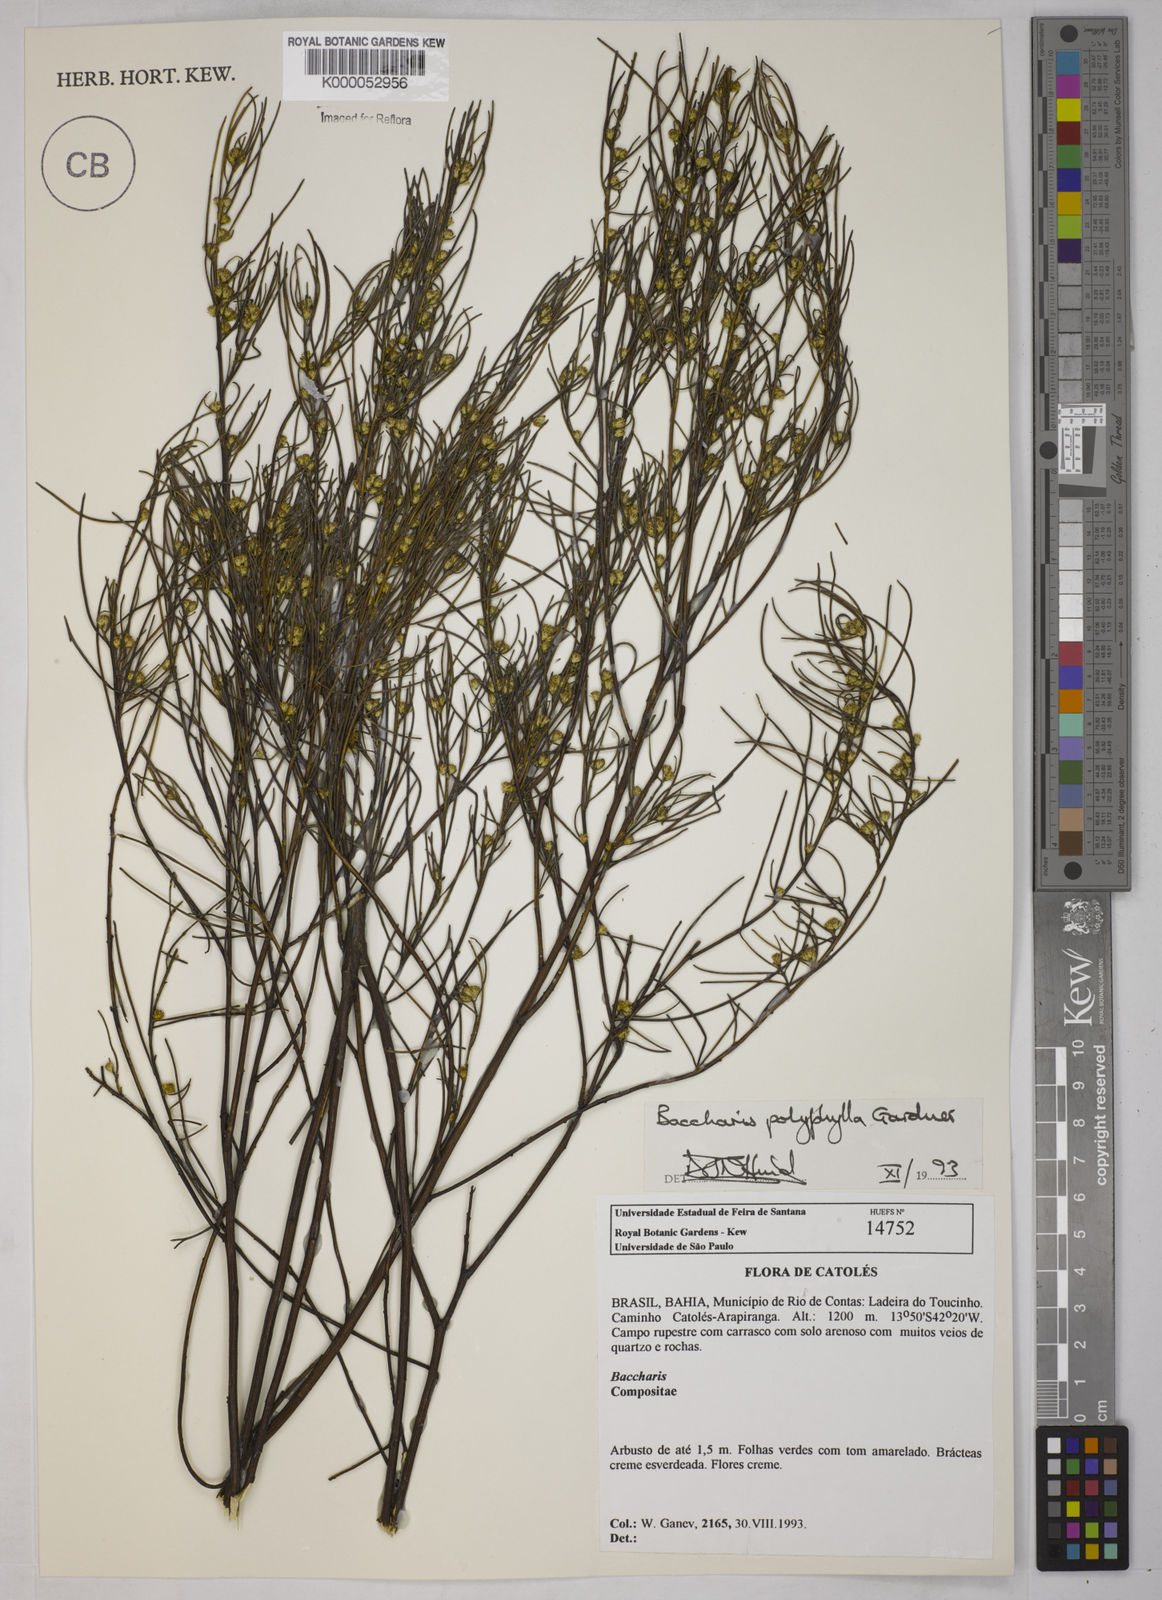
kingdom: Plantae
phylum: Tracheophyta
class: Magnoliopsida
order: Asterales
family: Asteraceae
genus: Baccharis
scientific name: Baccharis polyphylla
